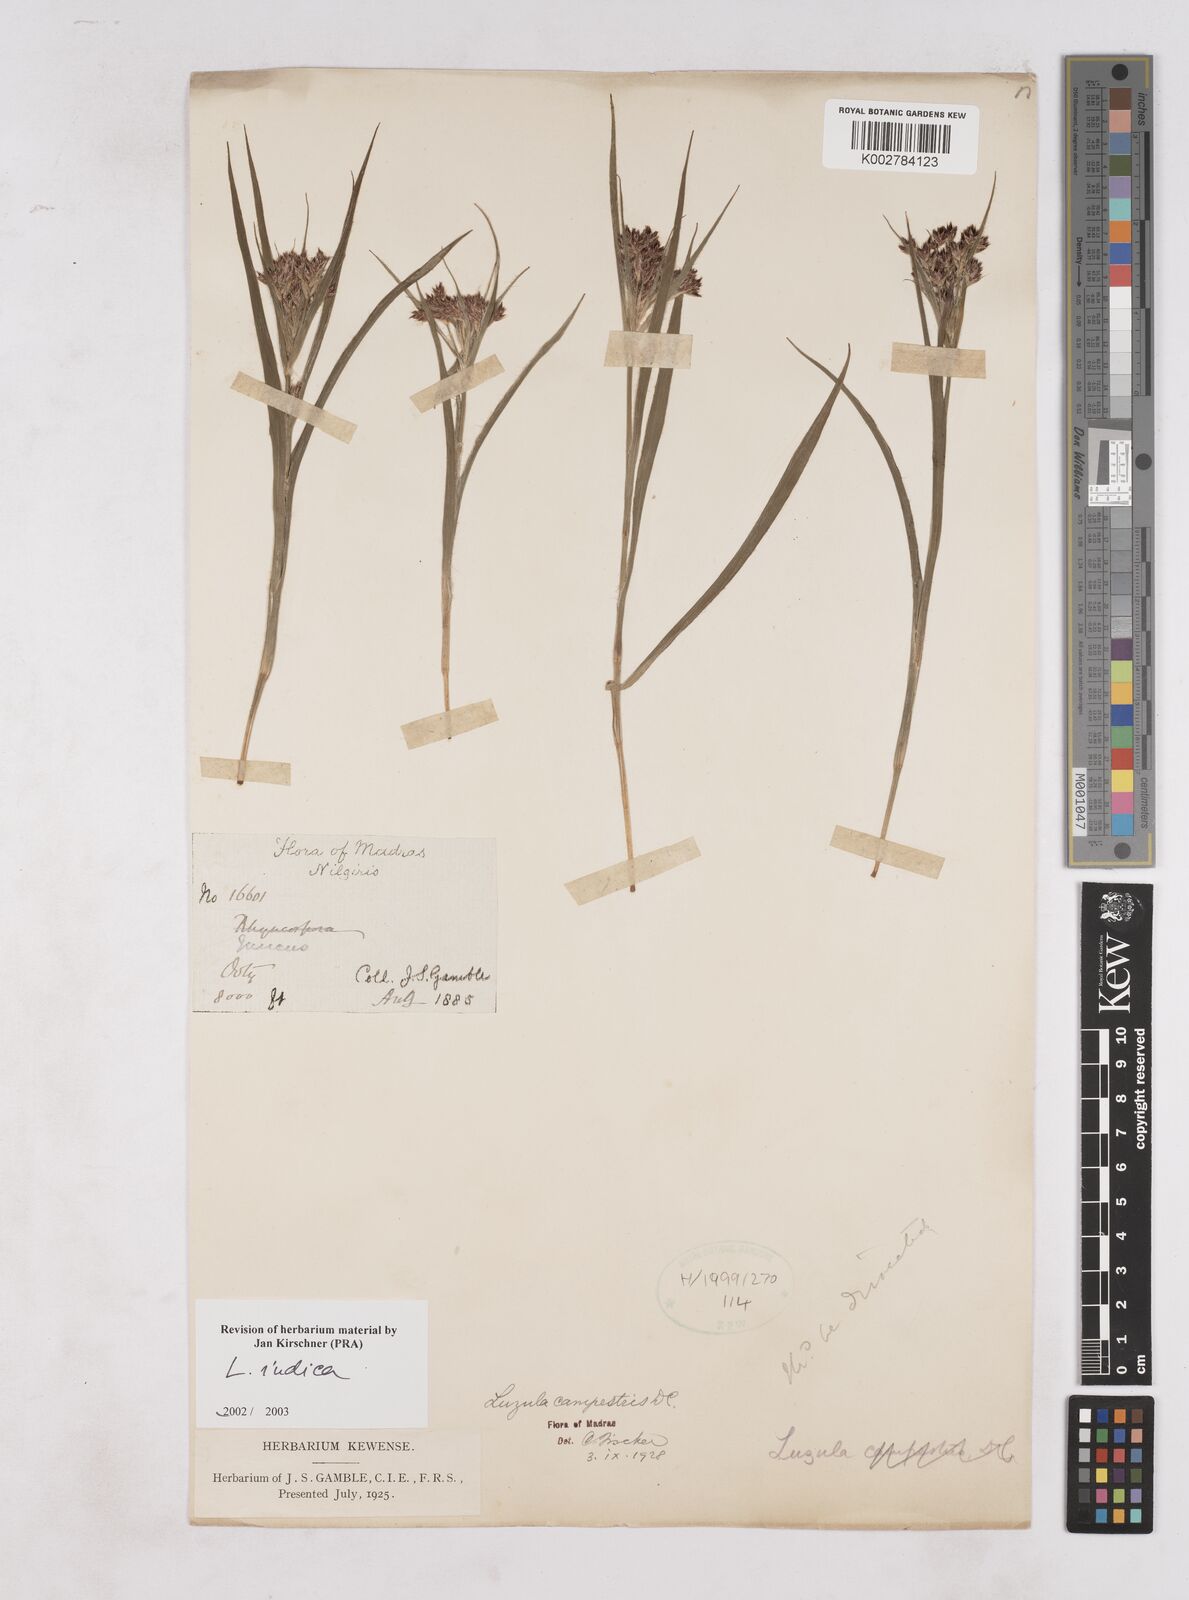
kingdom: Plantae
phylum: Tracheophyta
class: Liliopsida
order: Poales
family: Juncaceae
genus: Luzula
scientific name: Luzula indica
